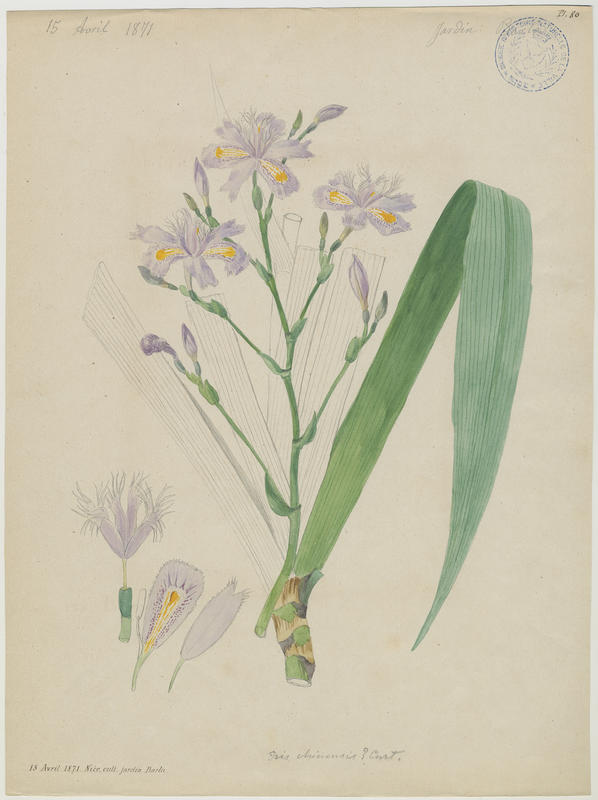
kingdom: Plantae
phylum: Tracheophyta
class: Liliopsida
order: Asparagales
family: Iridaceae
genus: Iris
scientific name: Iris formosana
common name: Taiwan iris
